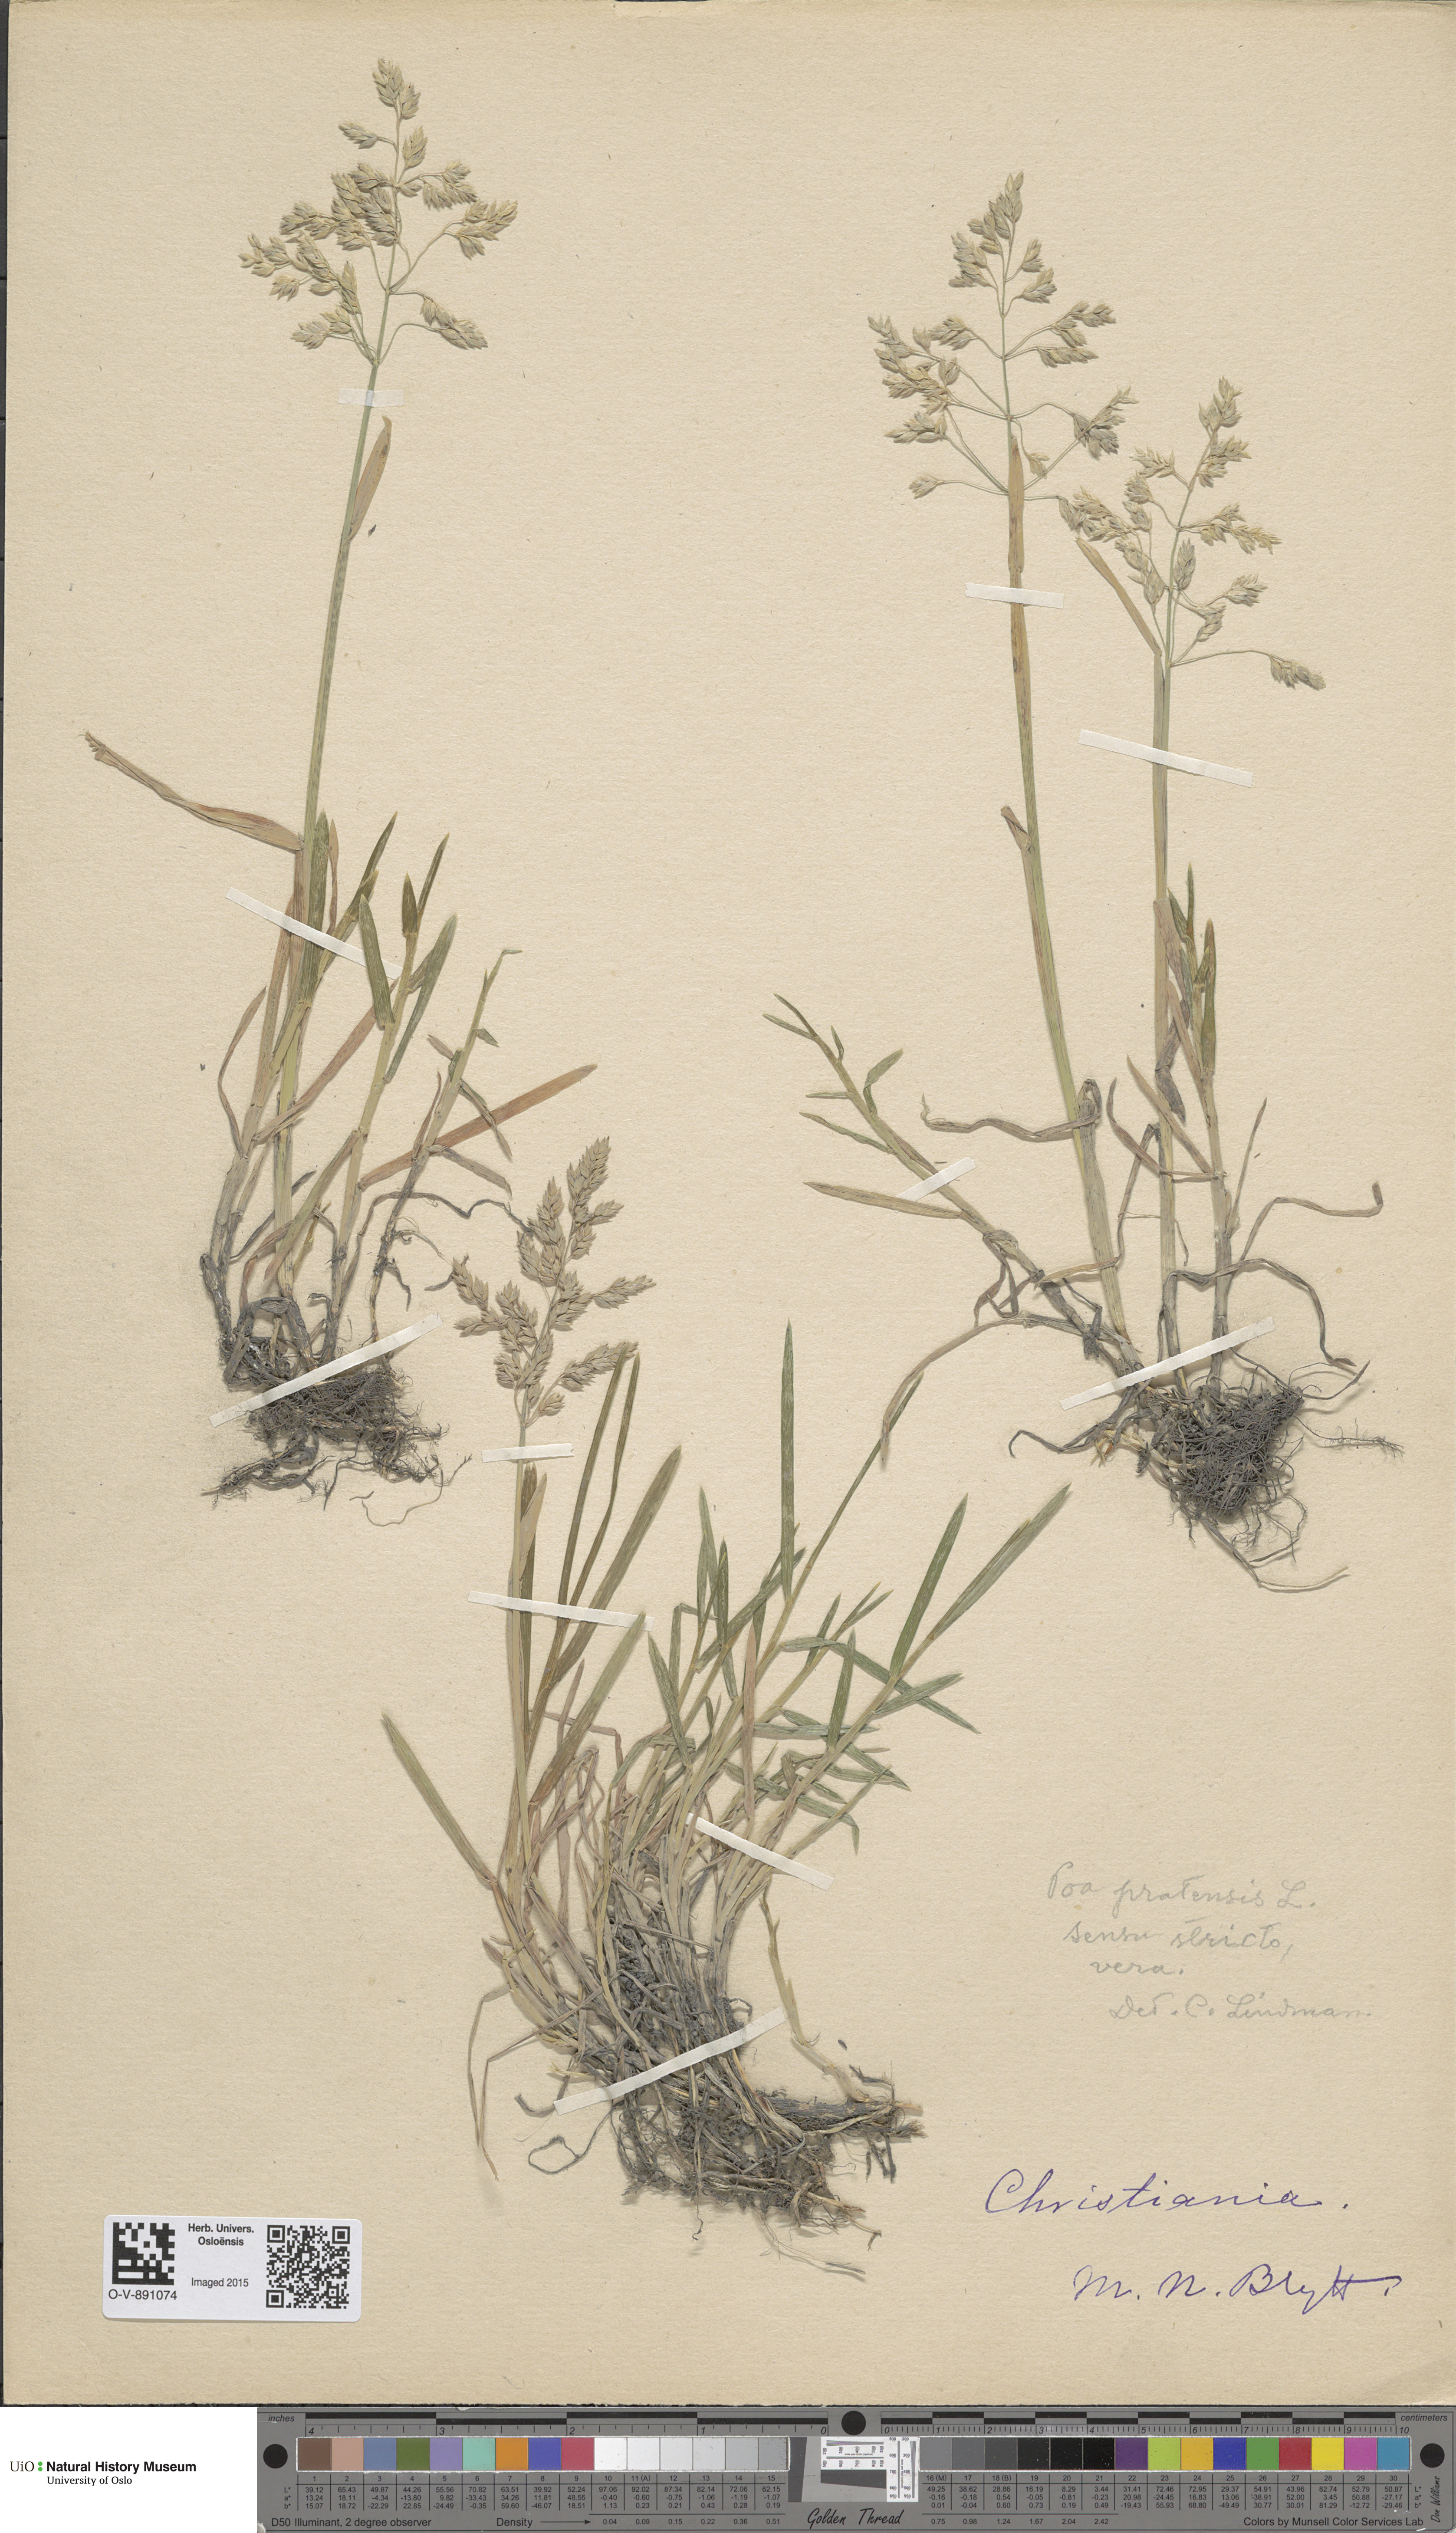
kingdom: Plantae
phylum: Tracheophyta
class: Liliopsida
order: Poales
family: Poaceae
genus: Poa
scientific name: Poa pratensis
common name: Kentucky bluegrass
